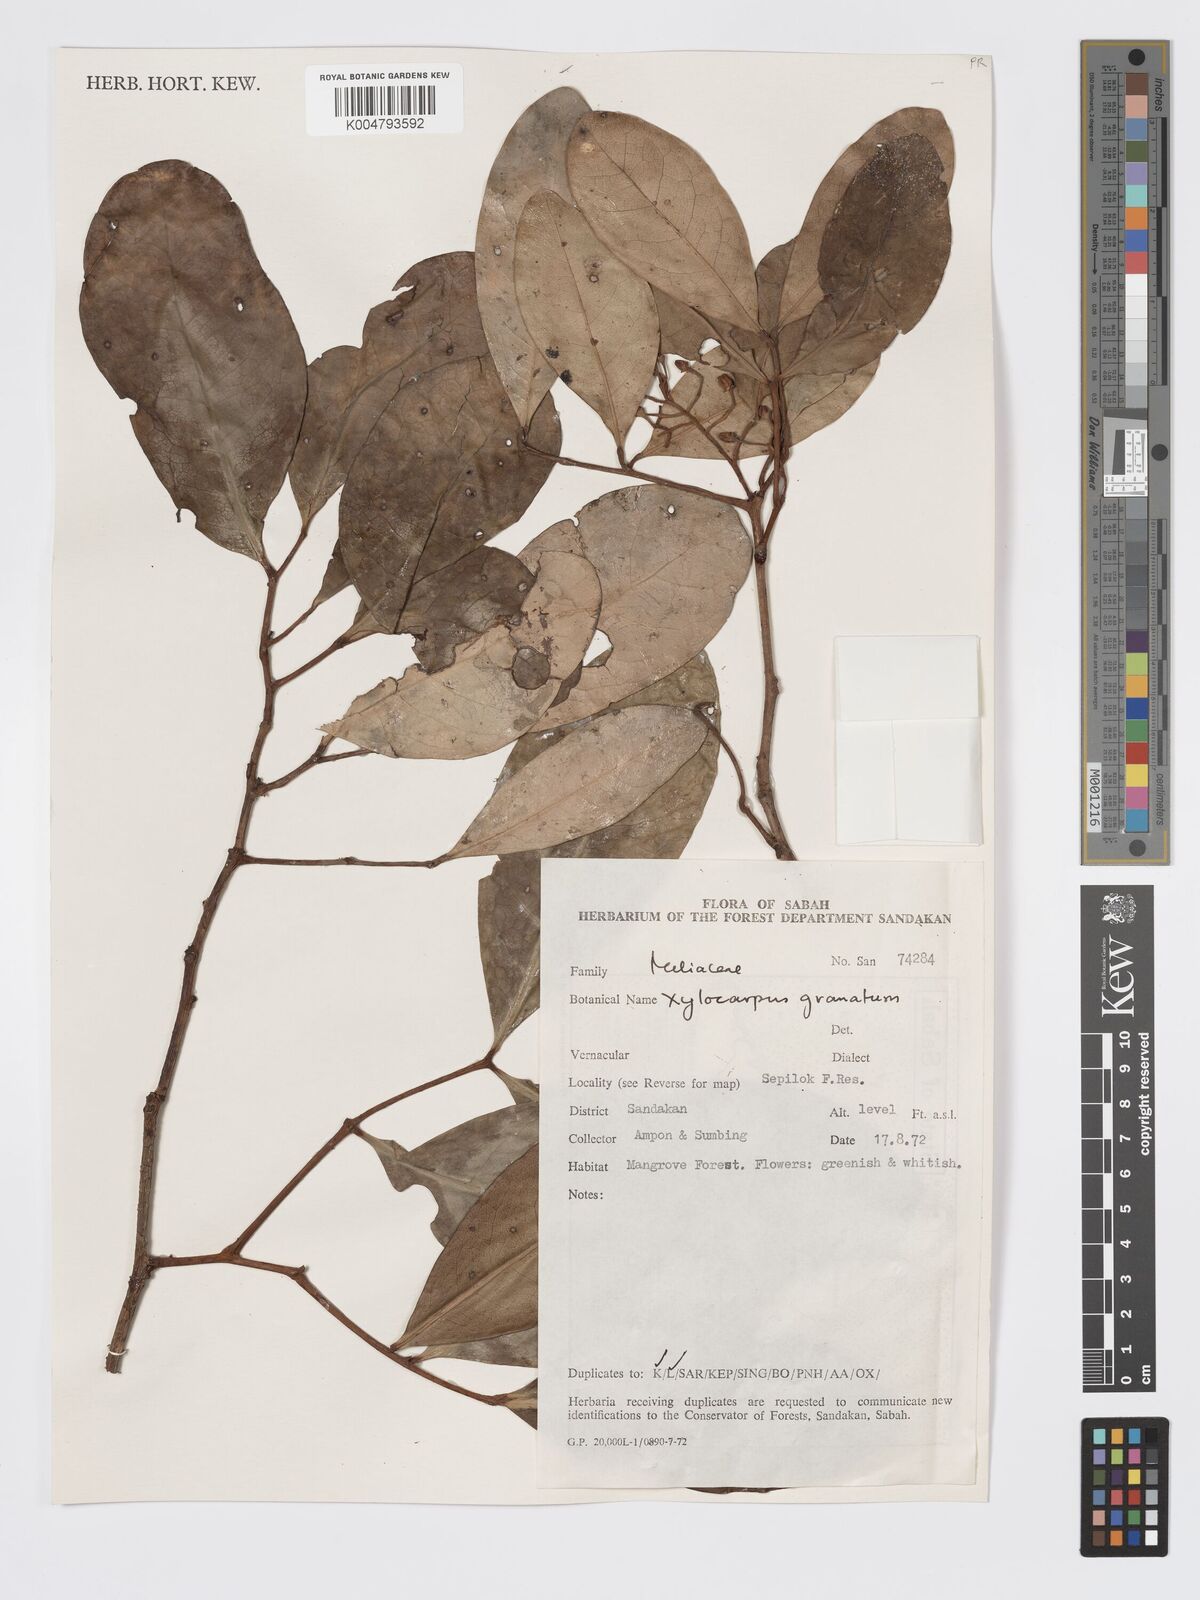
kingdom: Plantae
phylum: Tracheophyta
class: Magnoliopsida
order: Sapindales
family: Meliaceae
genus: Xylocarpus
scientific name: Xylocarpus granatum
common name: Apple mangrove
